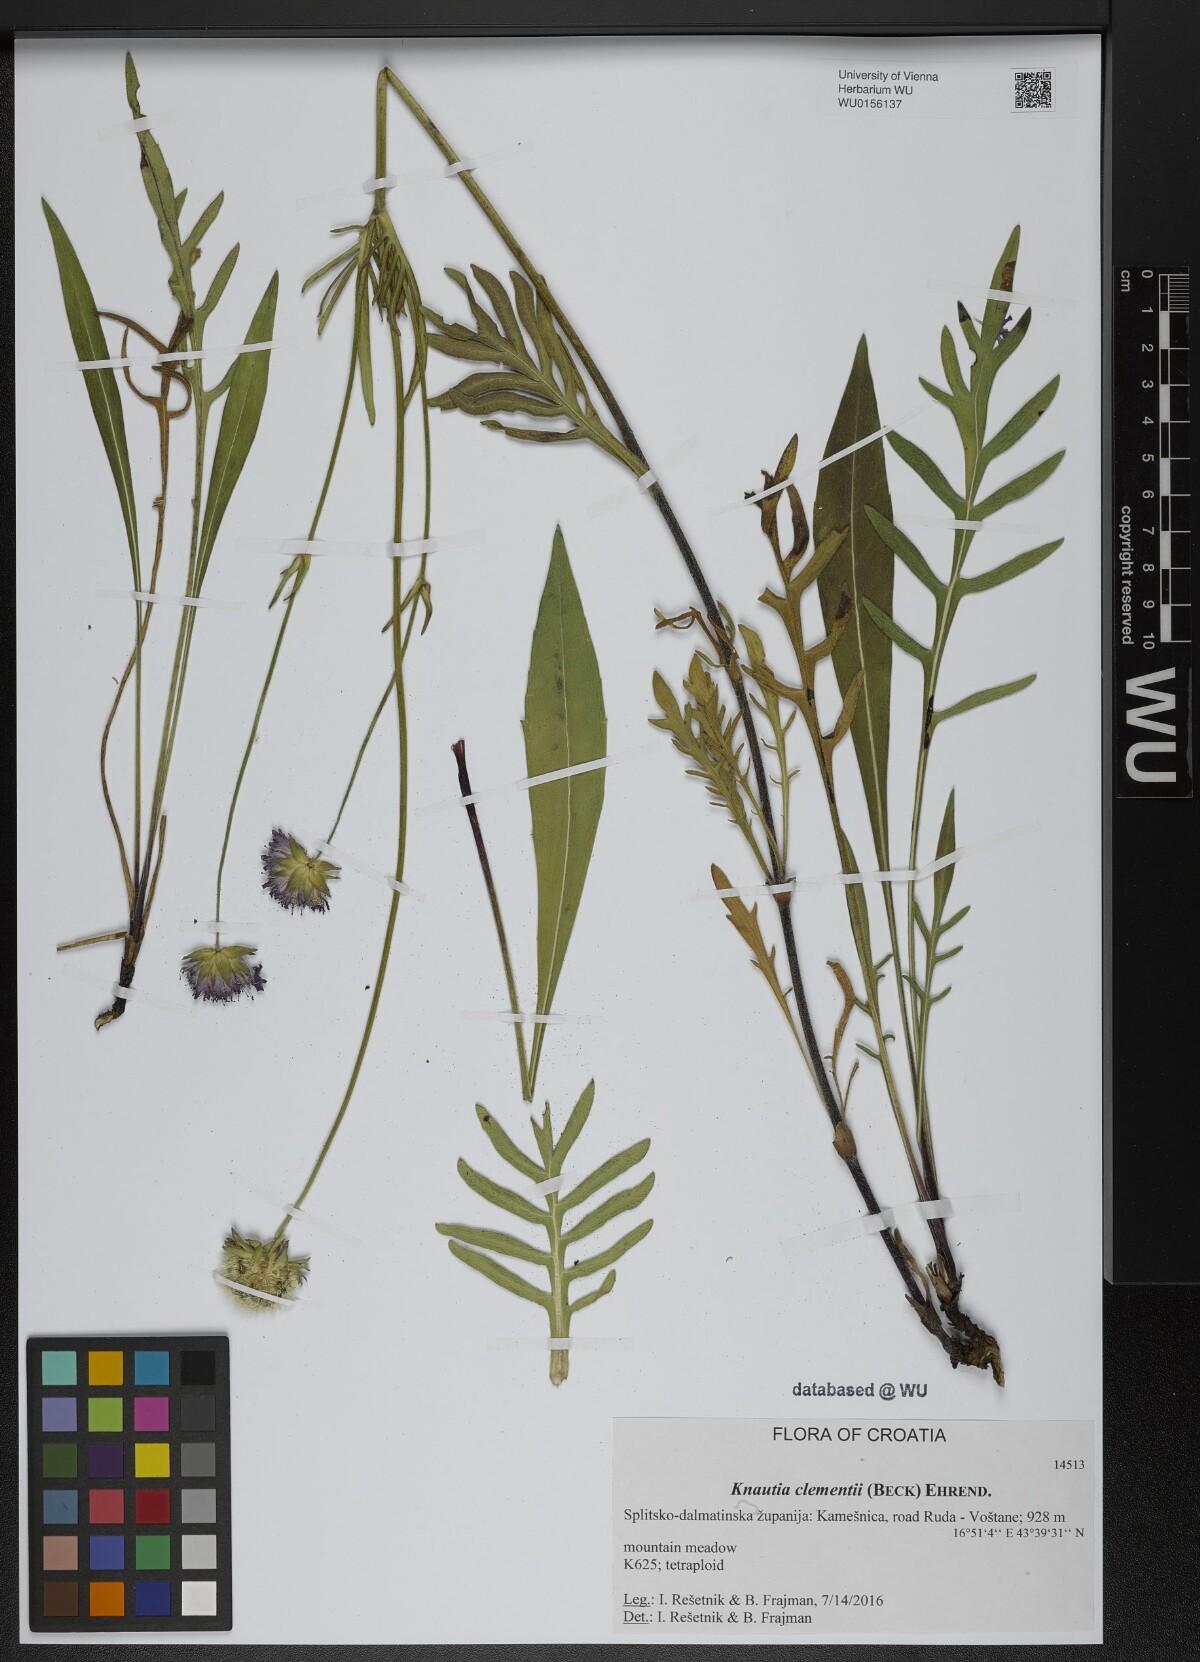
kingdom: Plantae
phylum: Tracheophyta
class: Magnoliopsida
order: Dipsacales
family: Caprifoliaceae
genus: Knautia
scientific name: Knautia clementii
